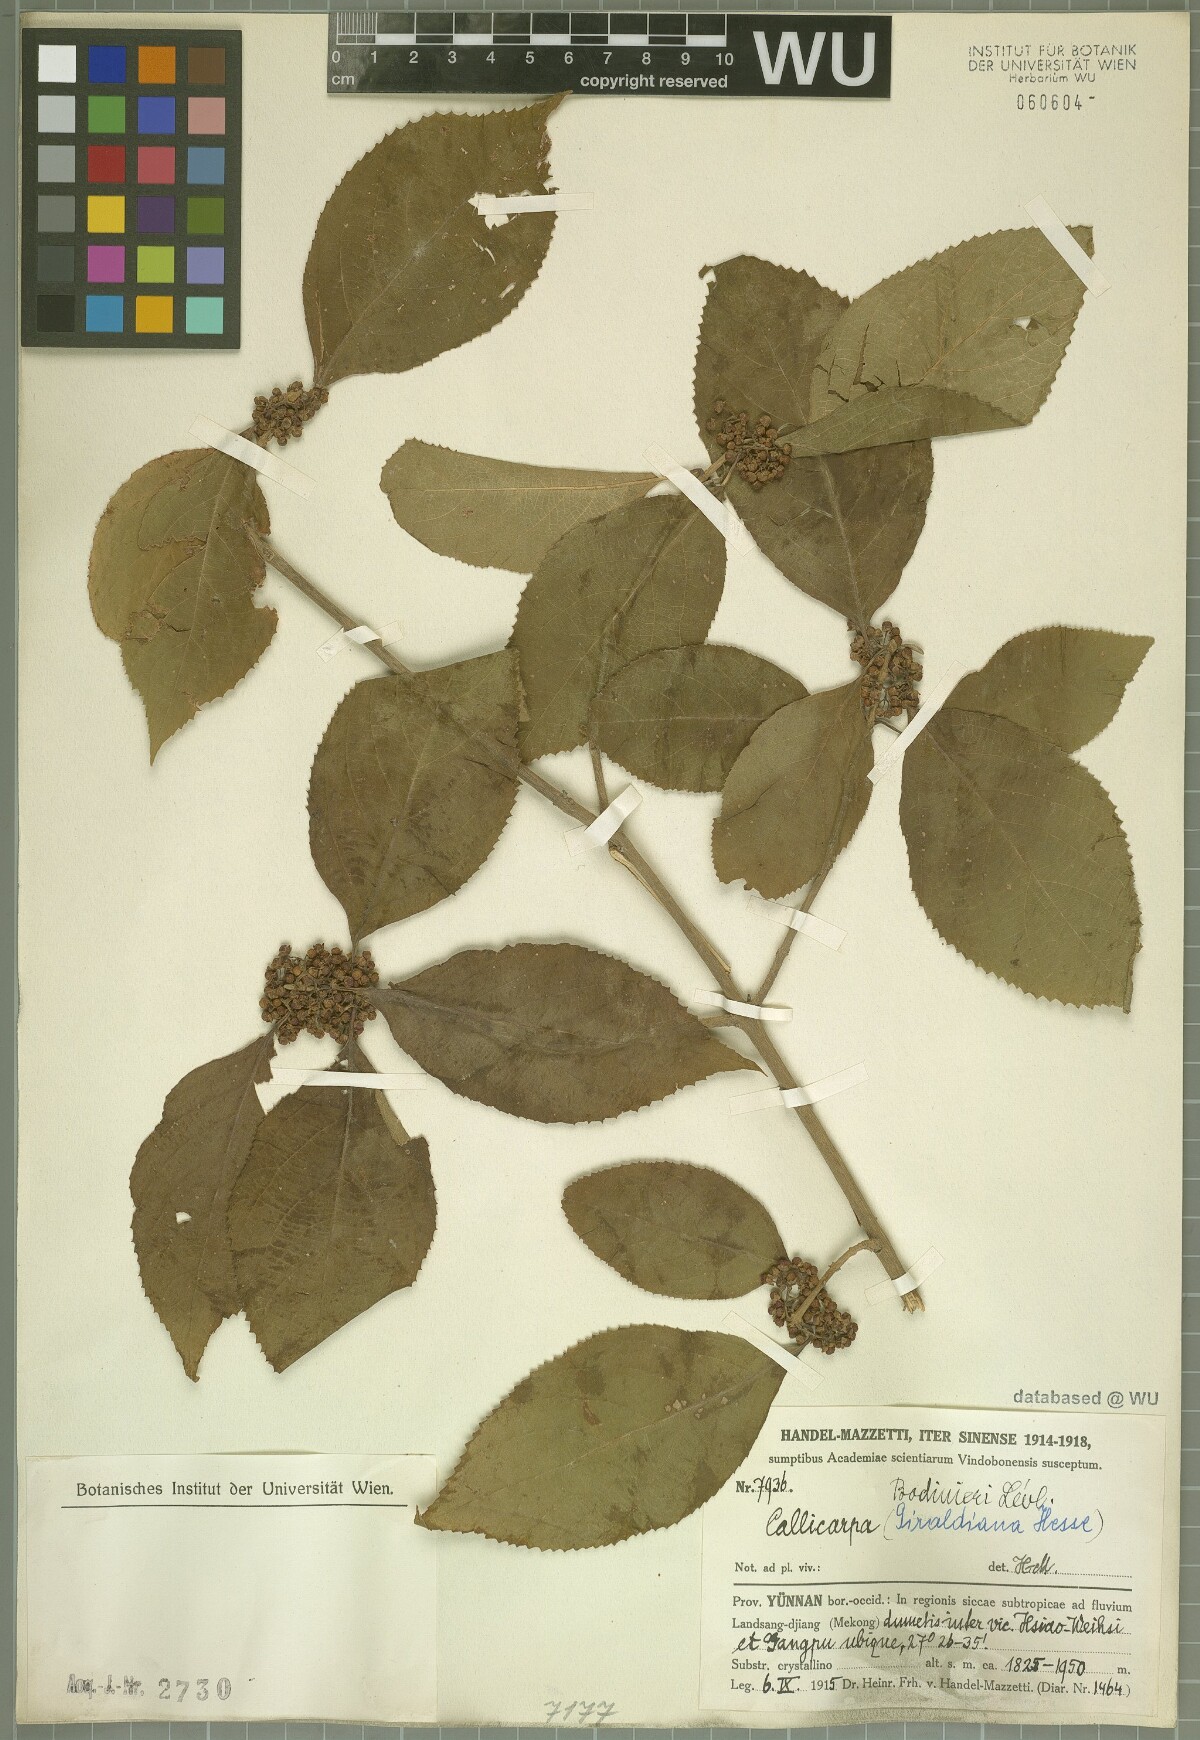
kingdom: Plantae
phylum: Tracheophyta
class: Magnoliopsida
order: Lamiales
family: Lamiaceae
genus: Callicarpa
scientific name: Callicarpa bodinieri
